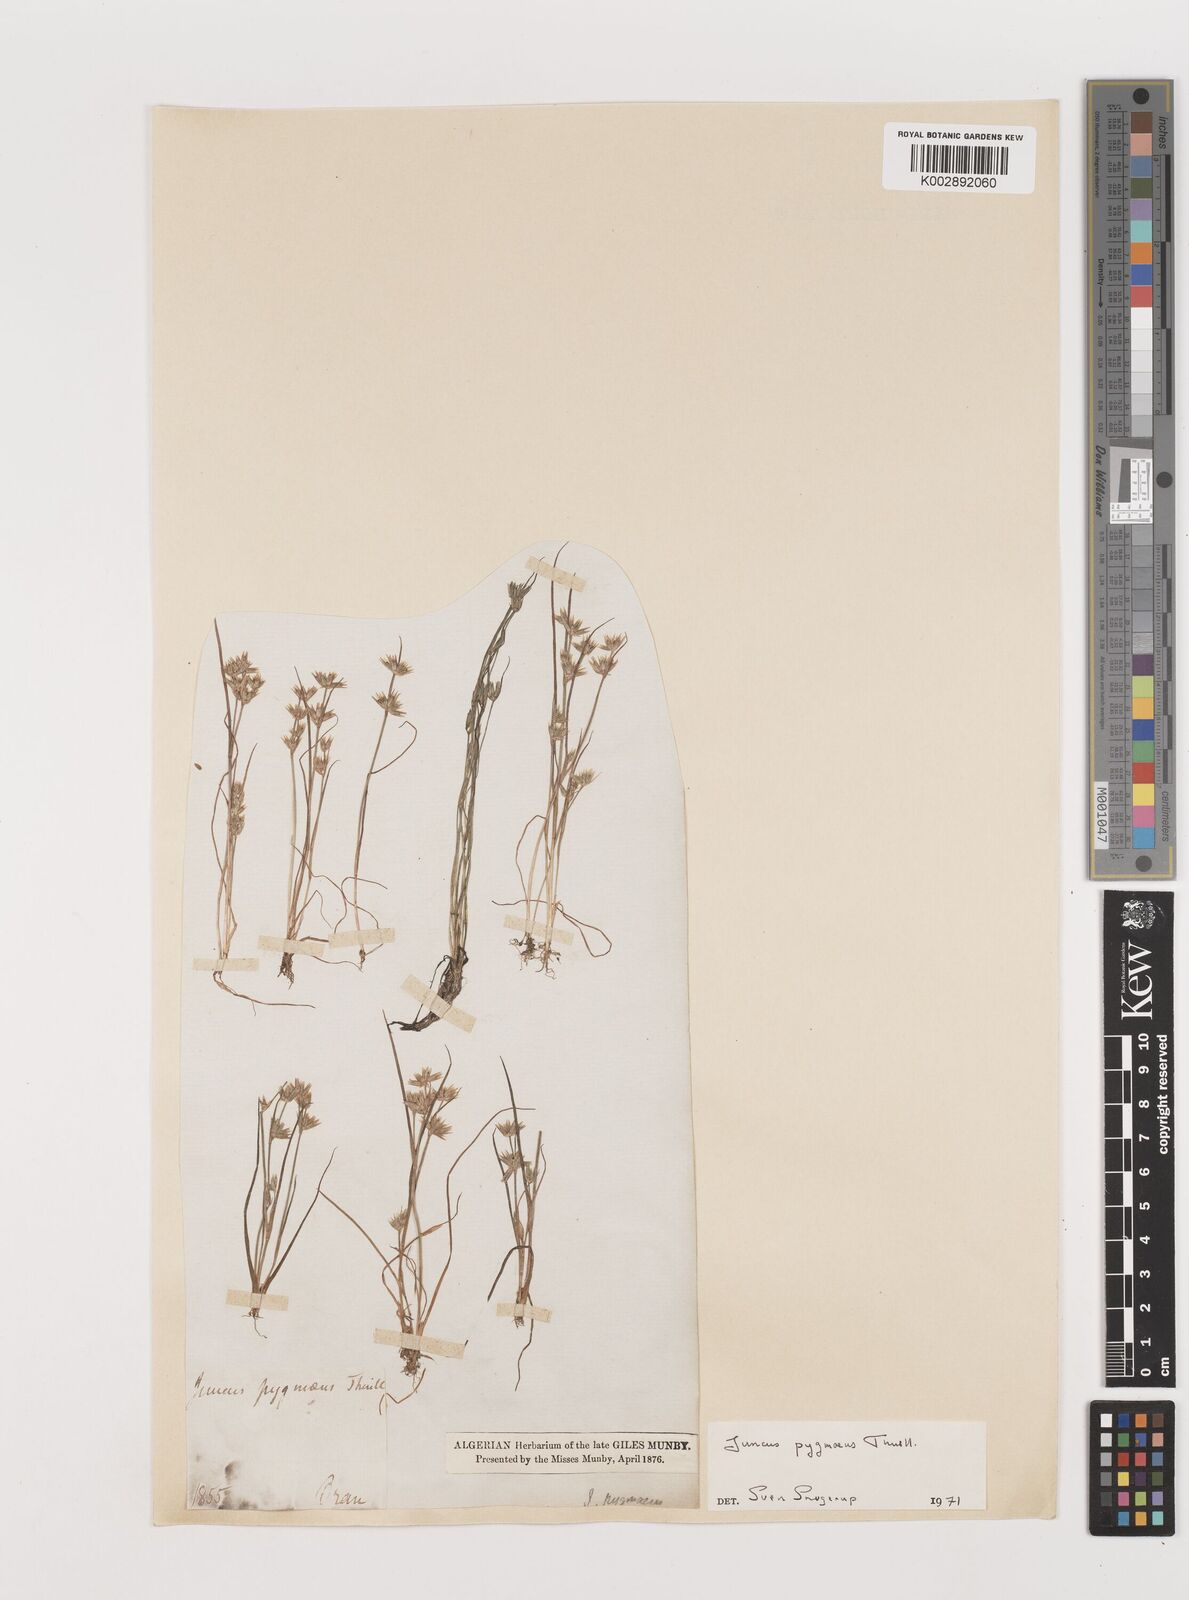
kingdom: Plantae
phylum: Tracheophyta
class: Liliopsida
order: Poales
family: Juncaceae
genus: Juncus
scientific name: Juncus pygmaeus
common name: Pigmy rush
